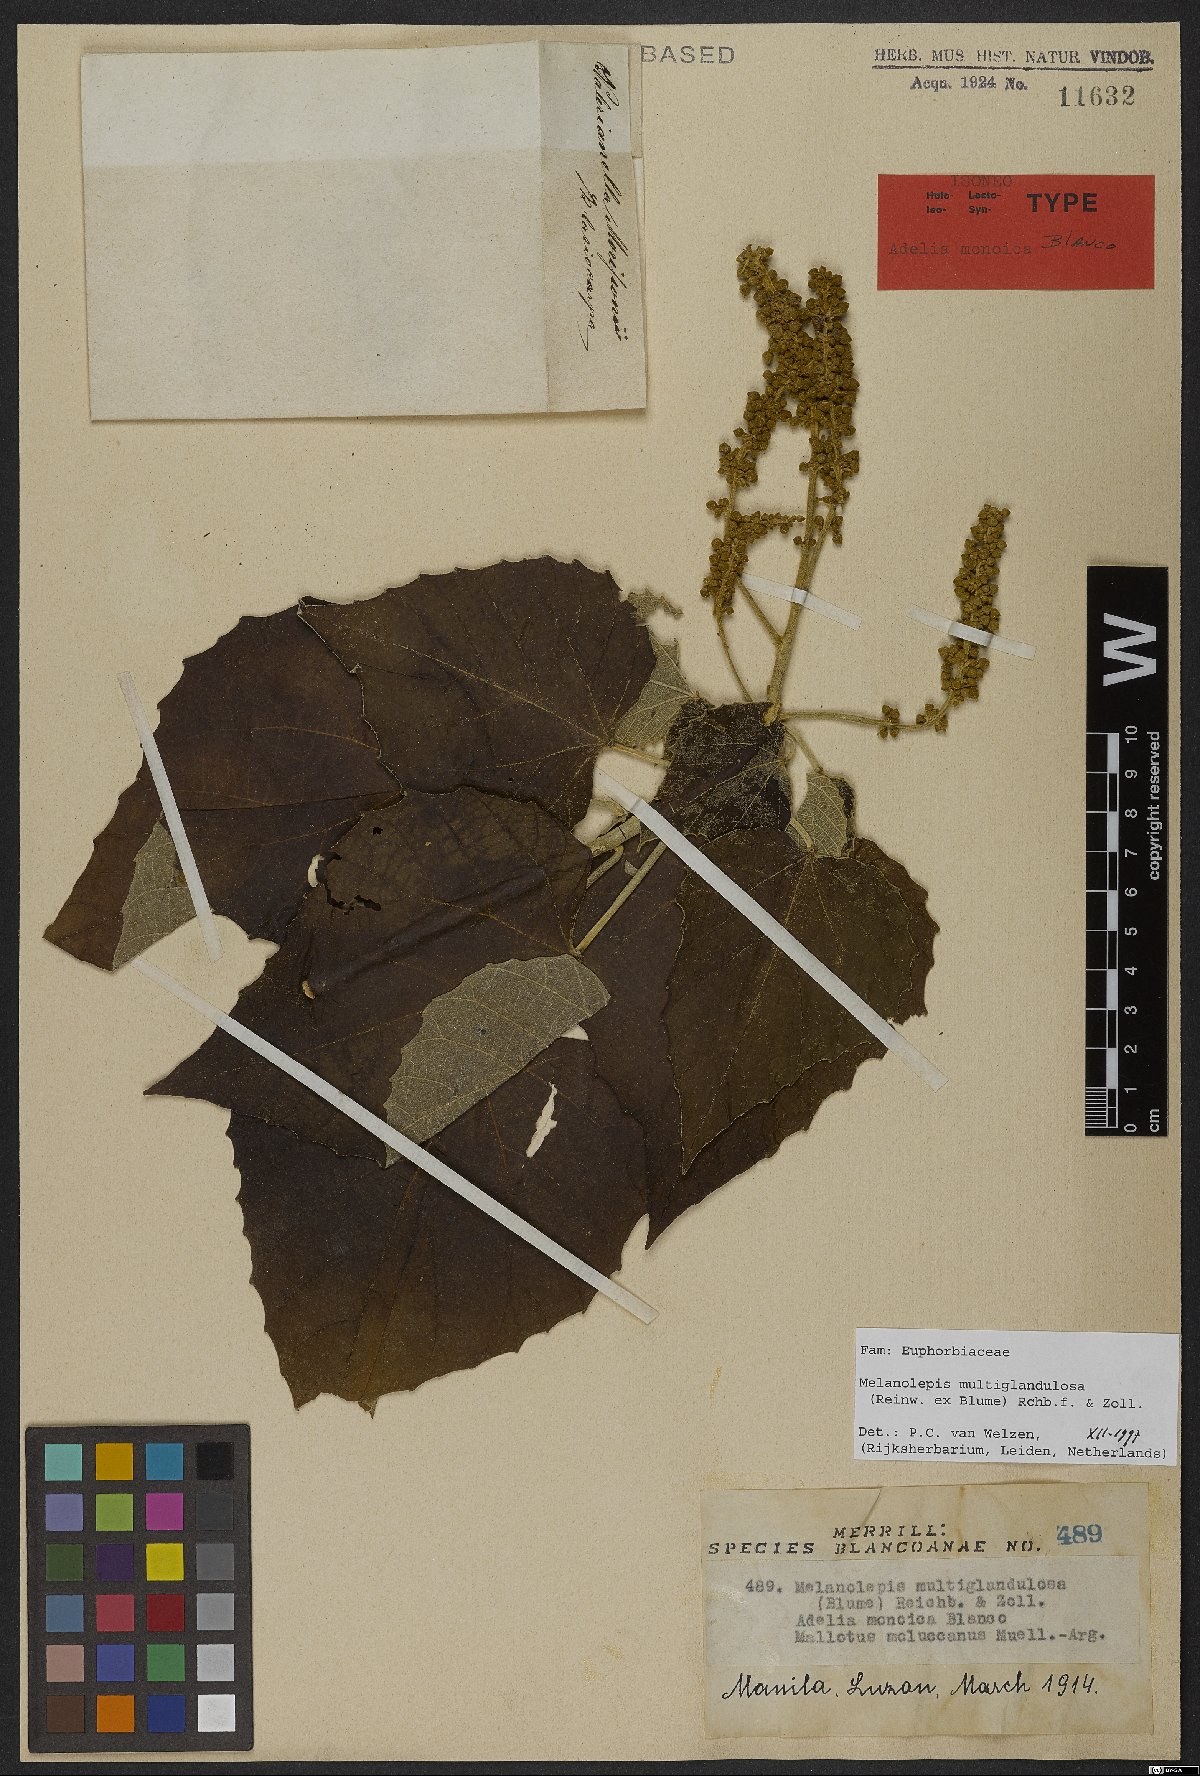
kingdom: Plantae
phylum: Tracheophyta
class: Magnoliopsida
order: Malpighiales
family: Euphorbiaceae
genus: Melanolepis
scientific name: Melanolepis multiglandulosa
